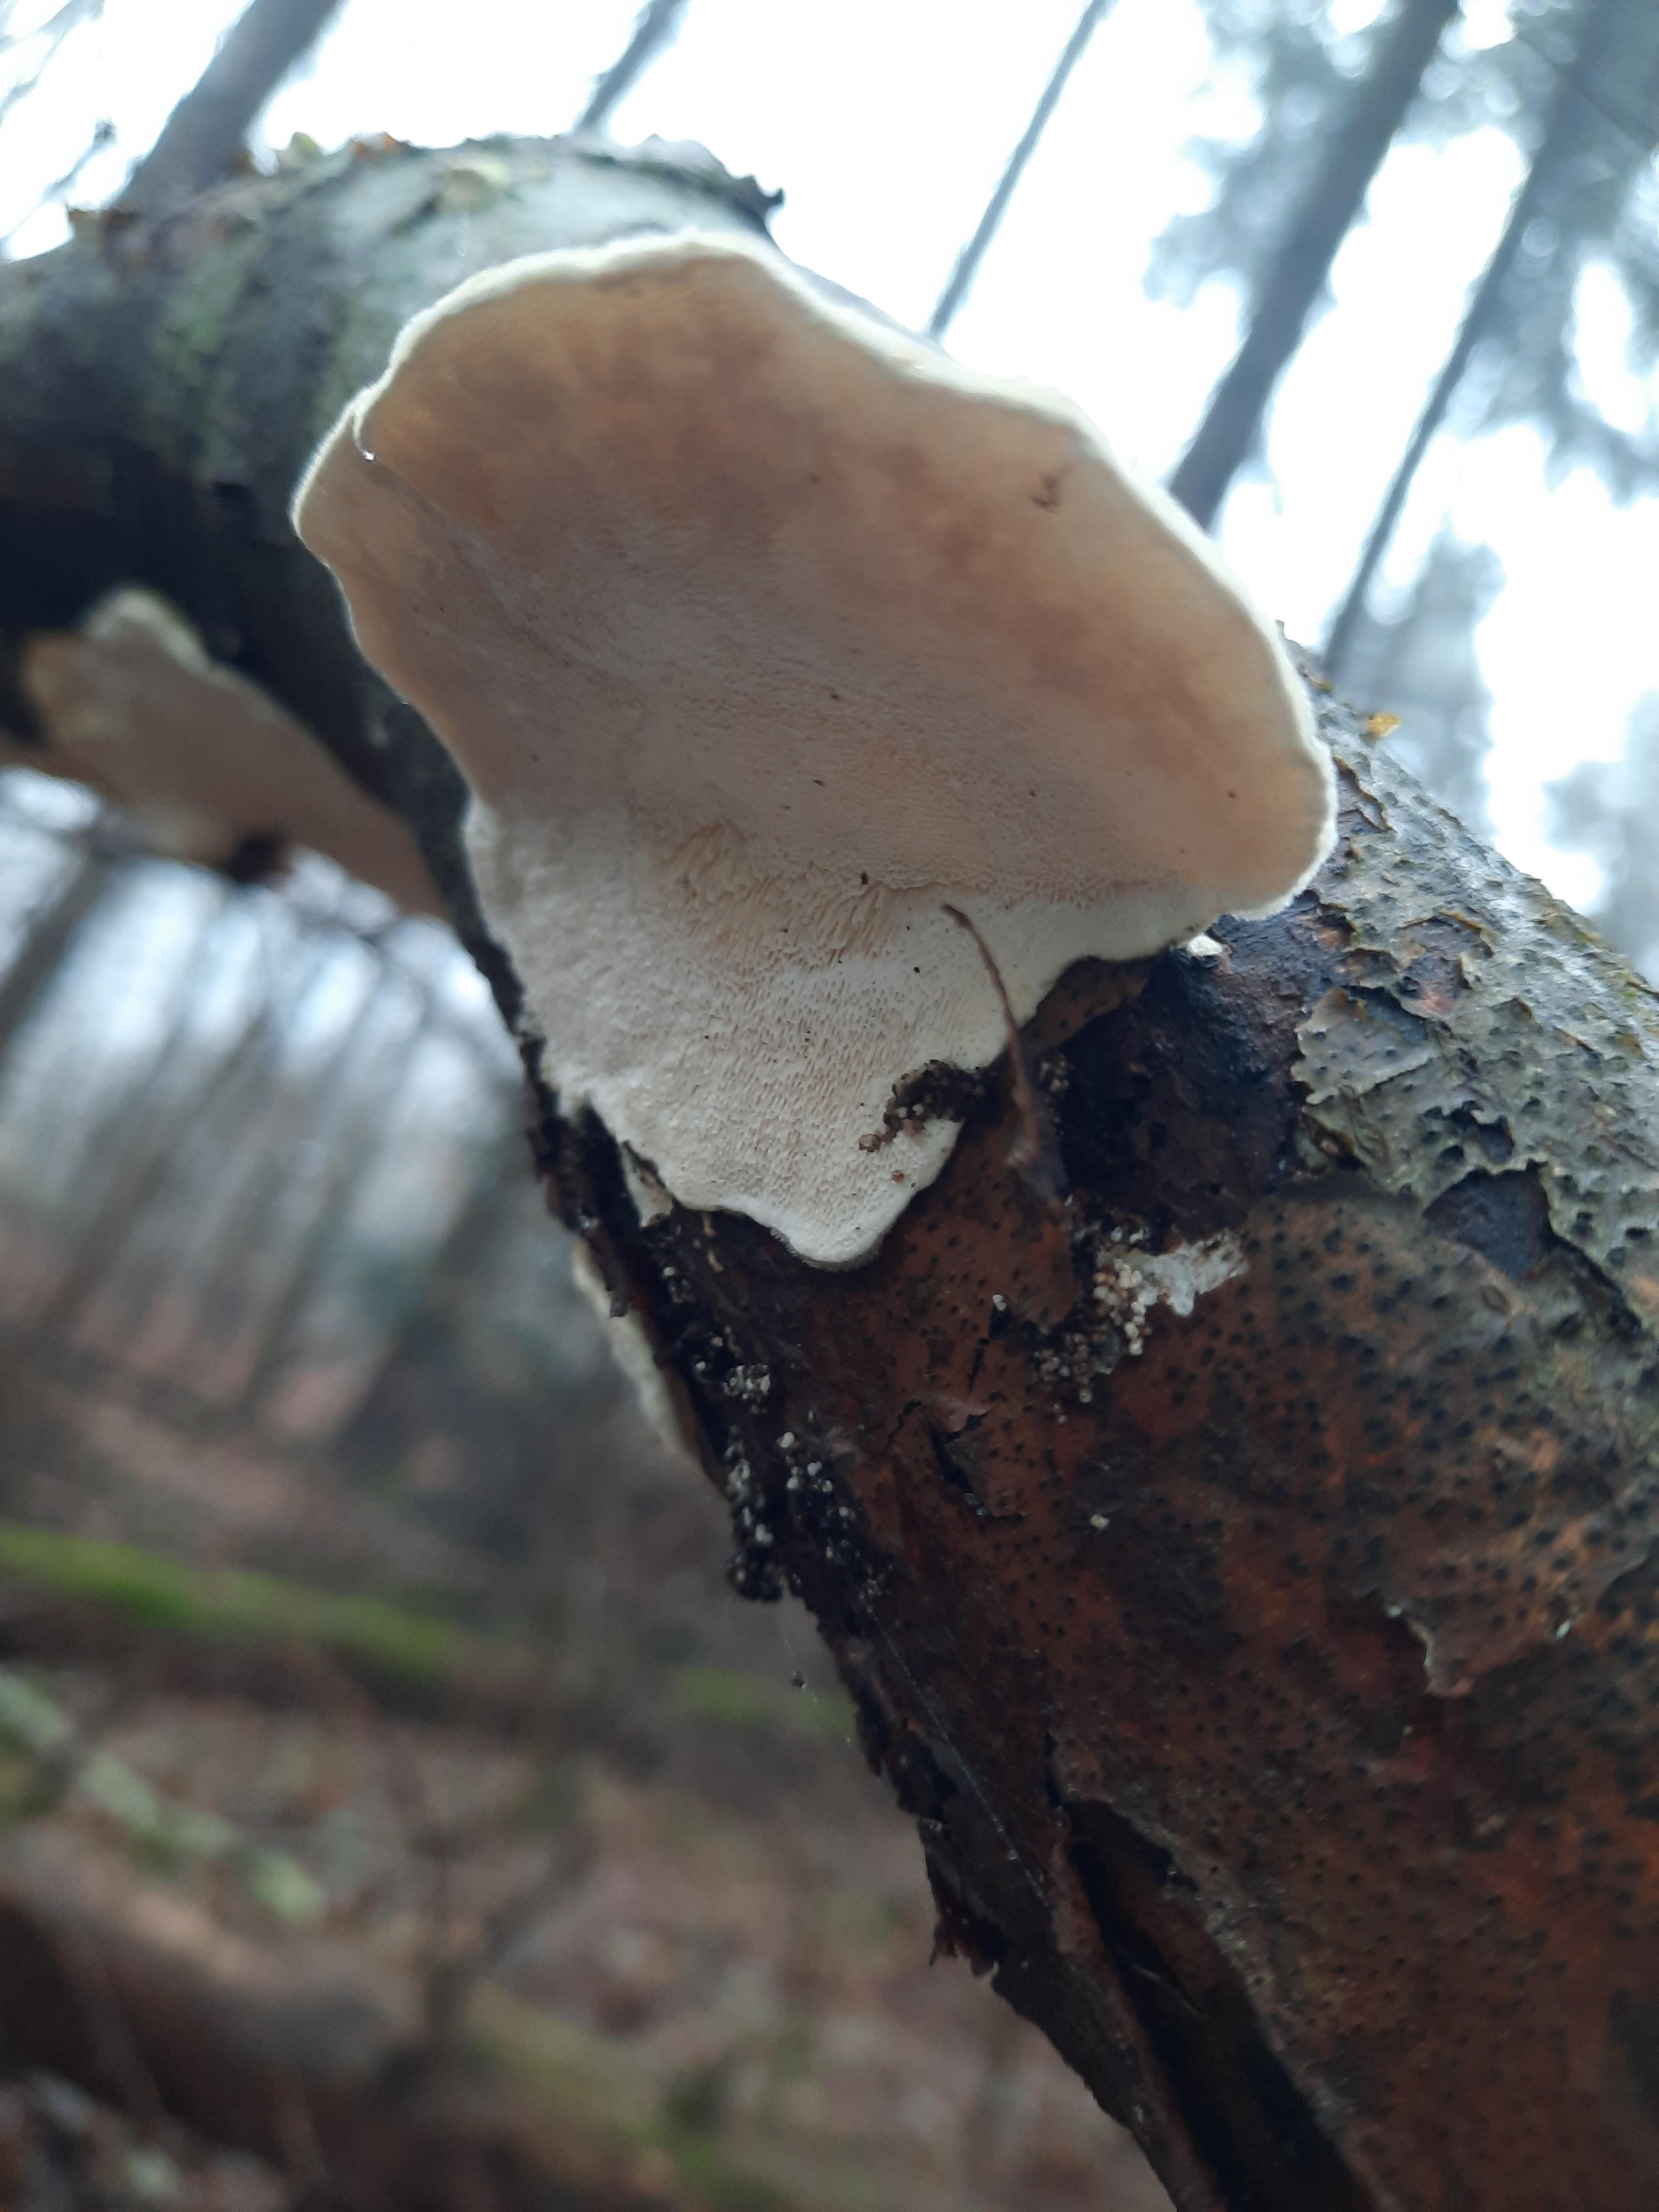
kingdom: Fungi
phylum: Basidiomycota
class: Agaricomycetes
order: Polyporales
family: Polyporaceae
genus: Trametes
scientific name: Trametes hirsuta
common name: håret læderporesvamp
